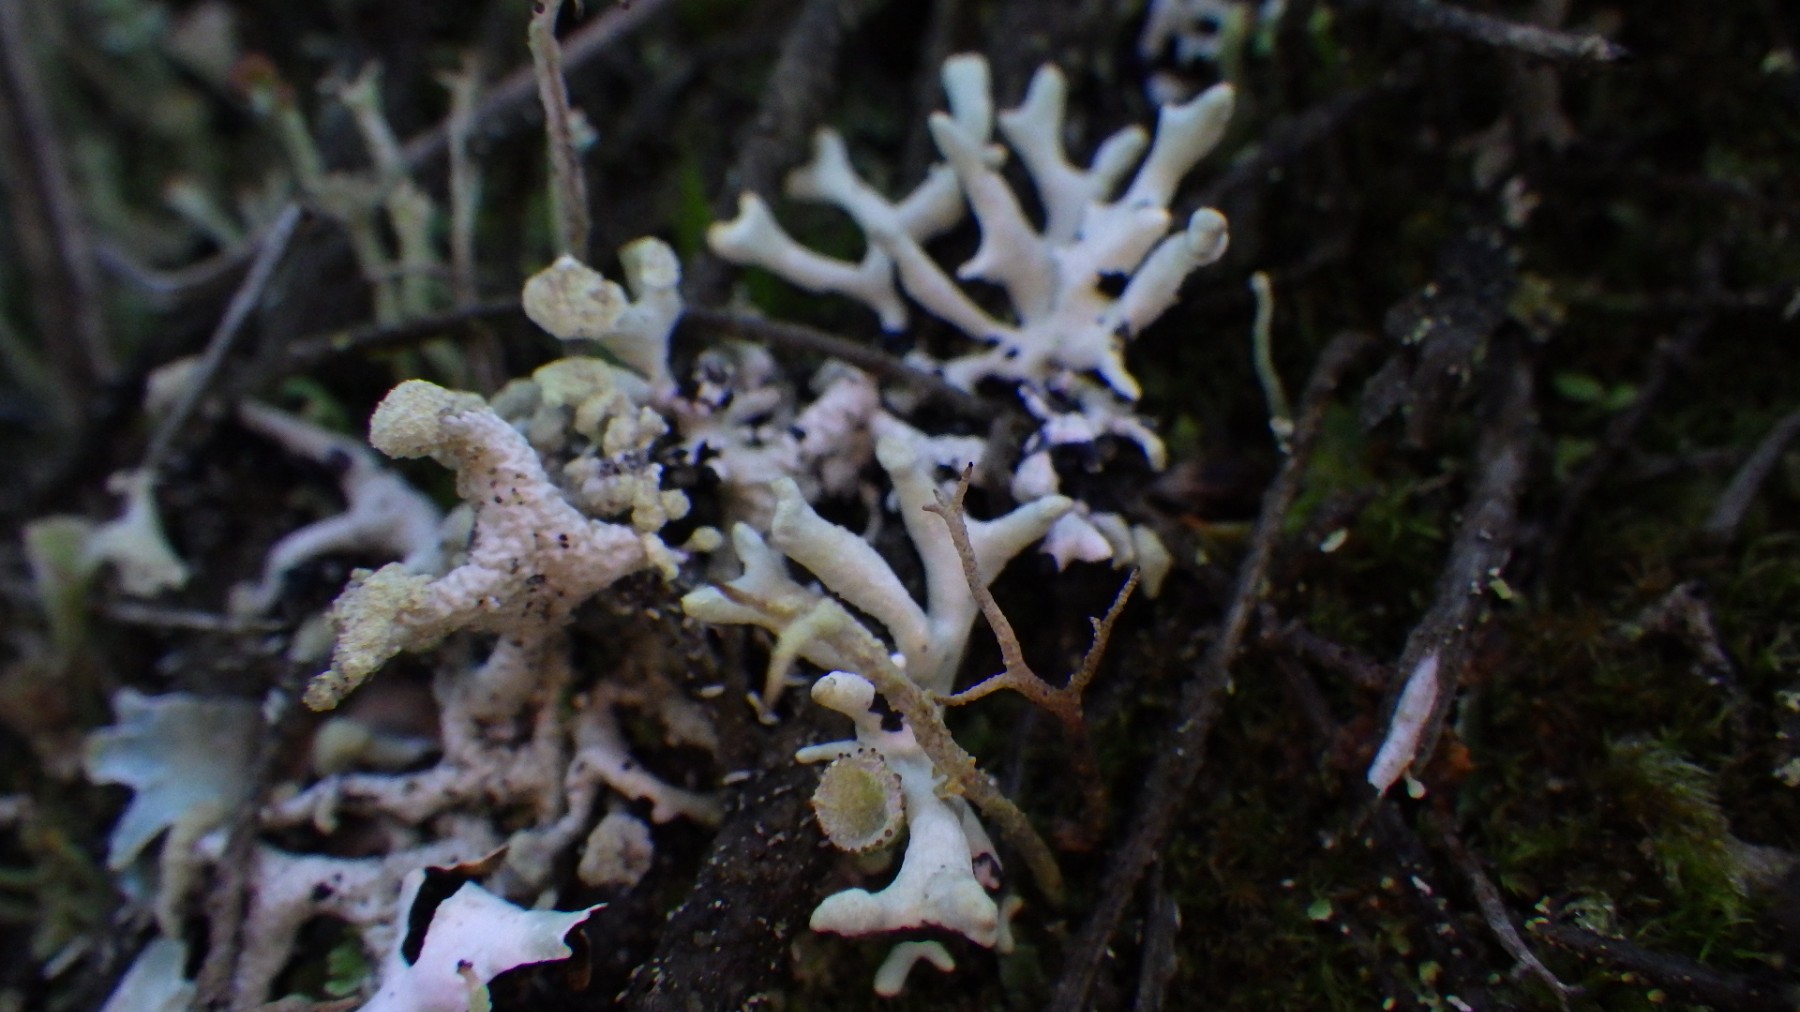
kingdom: Fungi
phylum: Ascomycota
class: Lecanoromycetes
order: Lecanorales
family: Parmeliaceae
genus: Hypogymnia
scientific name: Hypogymnia tubulosa
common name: finger-kvistlav
